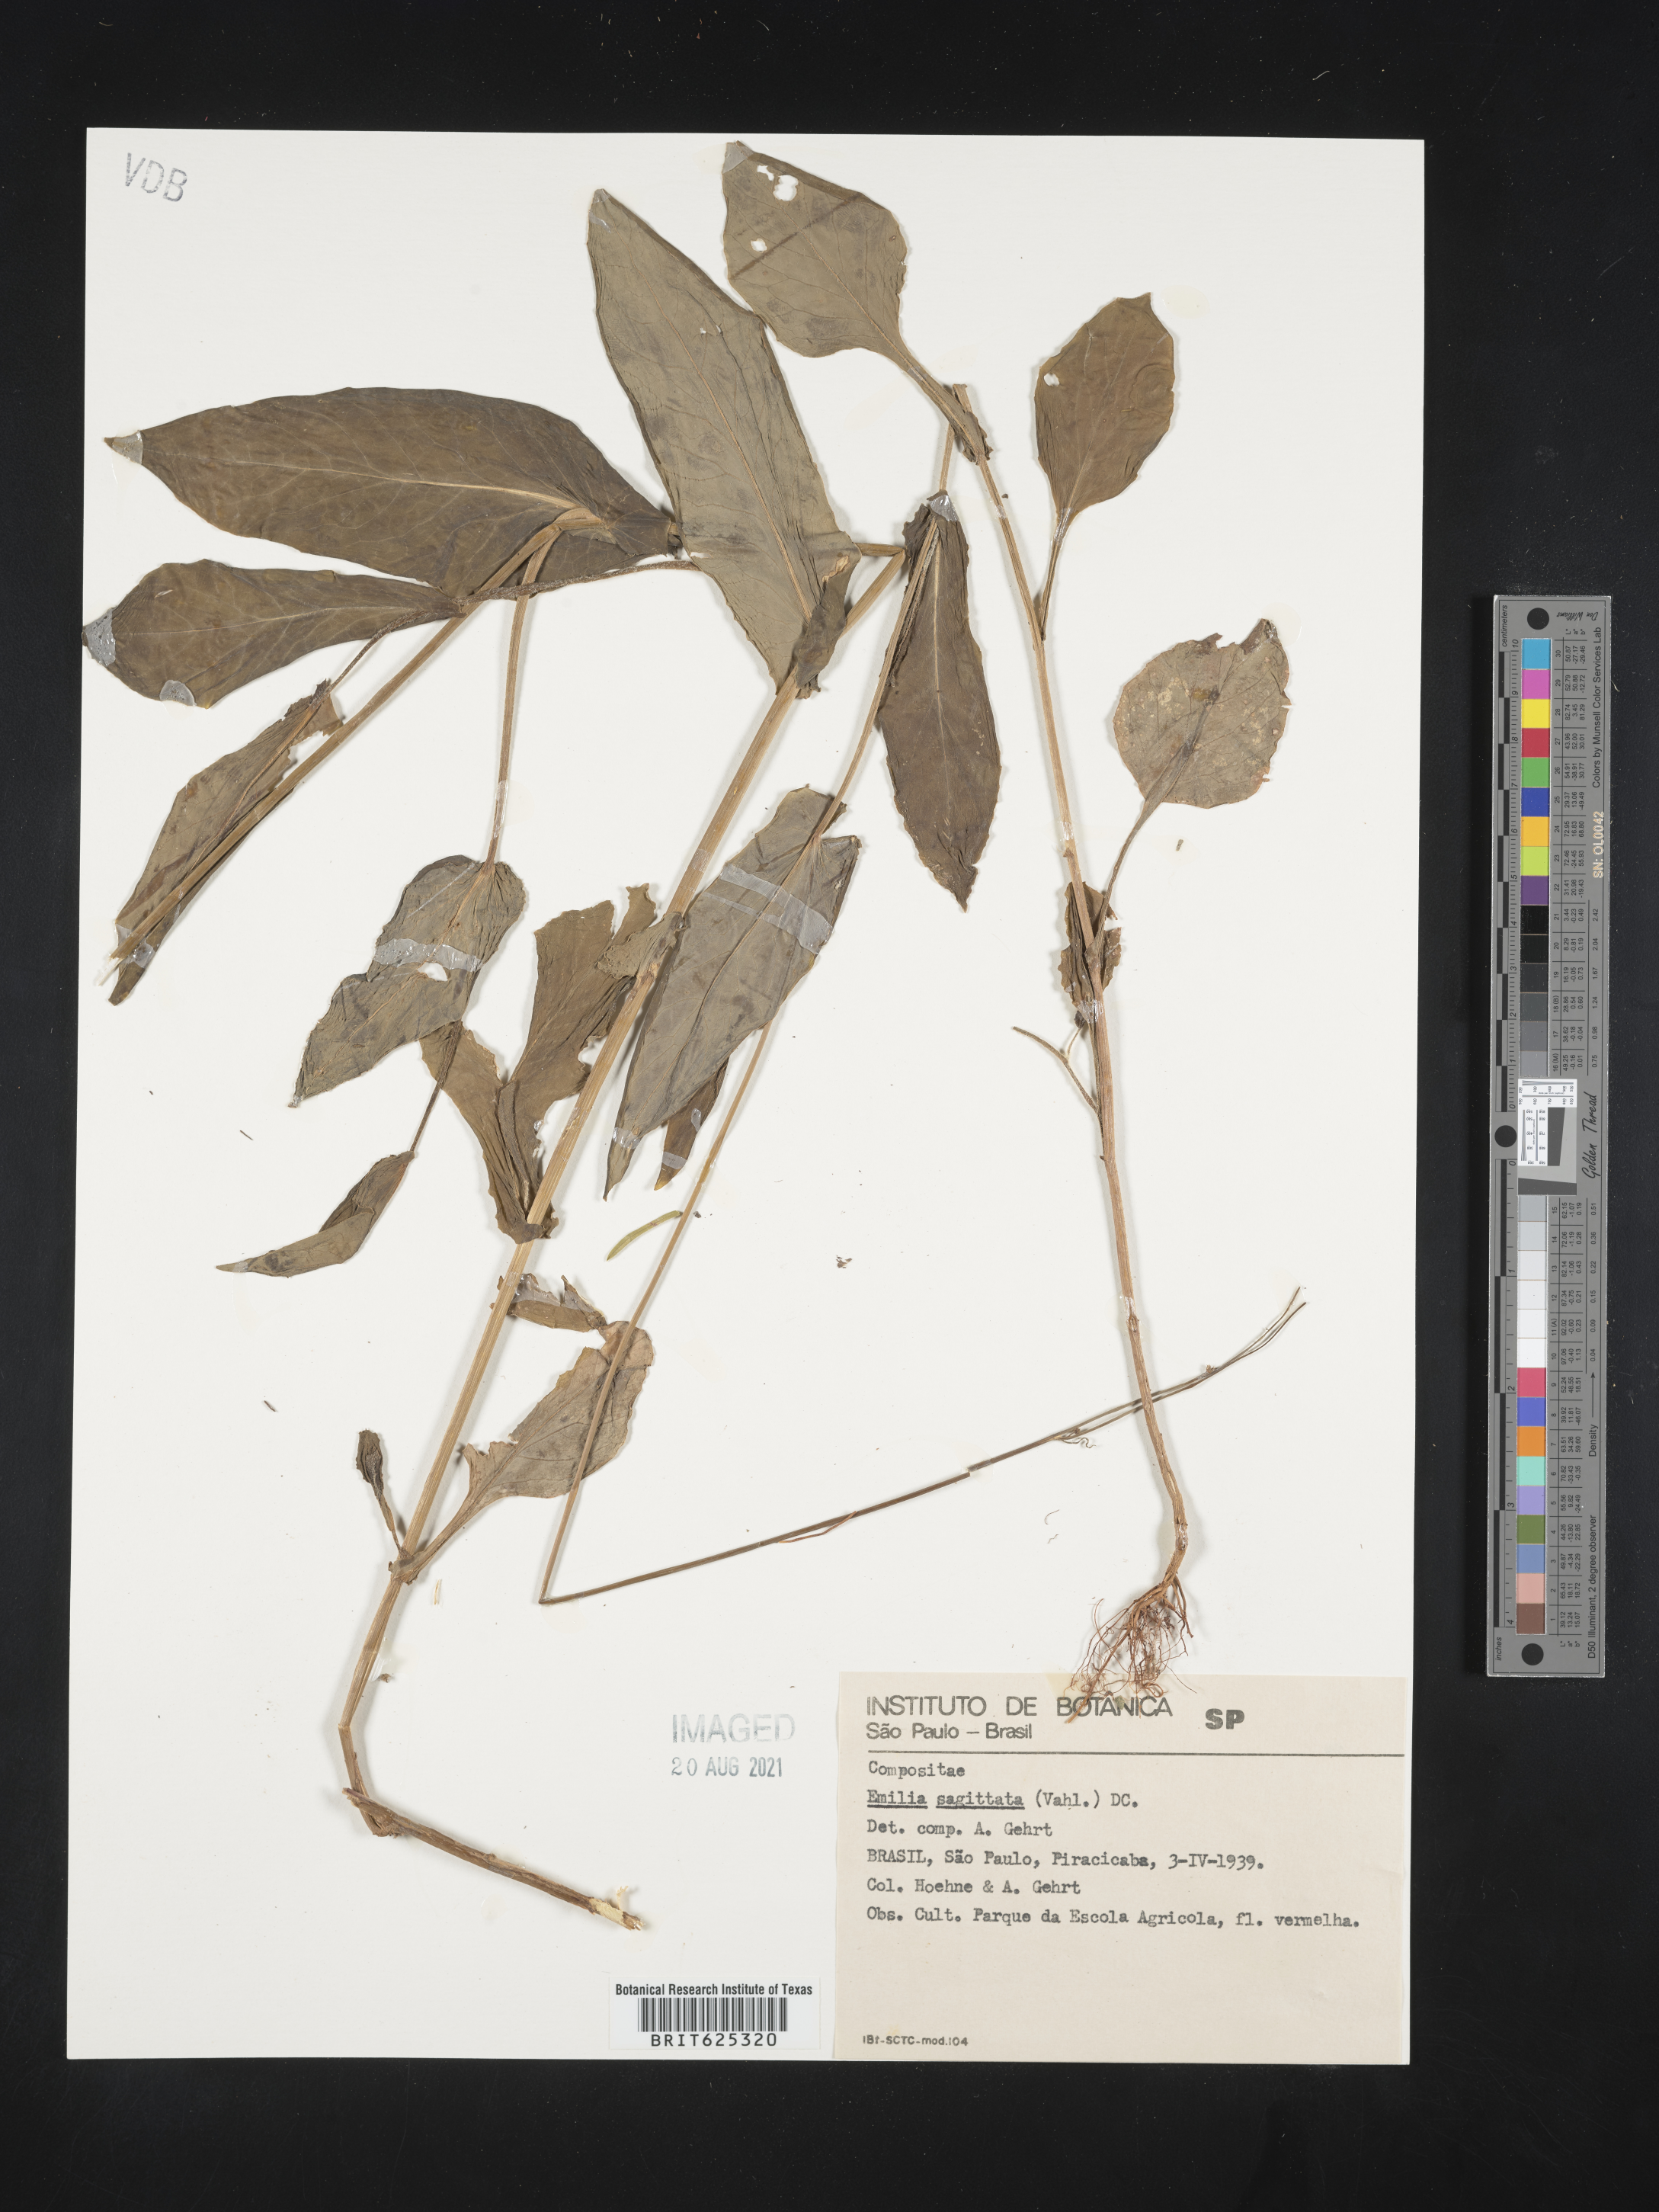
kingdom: Plantae
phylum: Tracheophyta
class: Magnoliopsida
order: Asterales
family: Asteraceae
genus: Emilia
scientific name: Emilia javanica
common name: Tassel-flower
